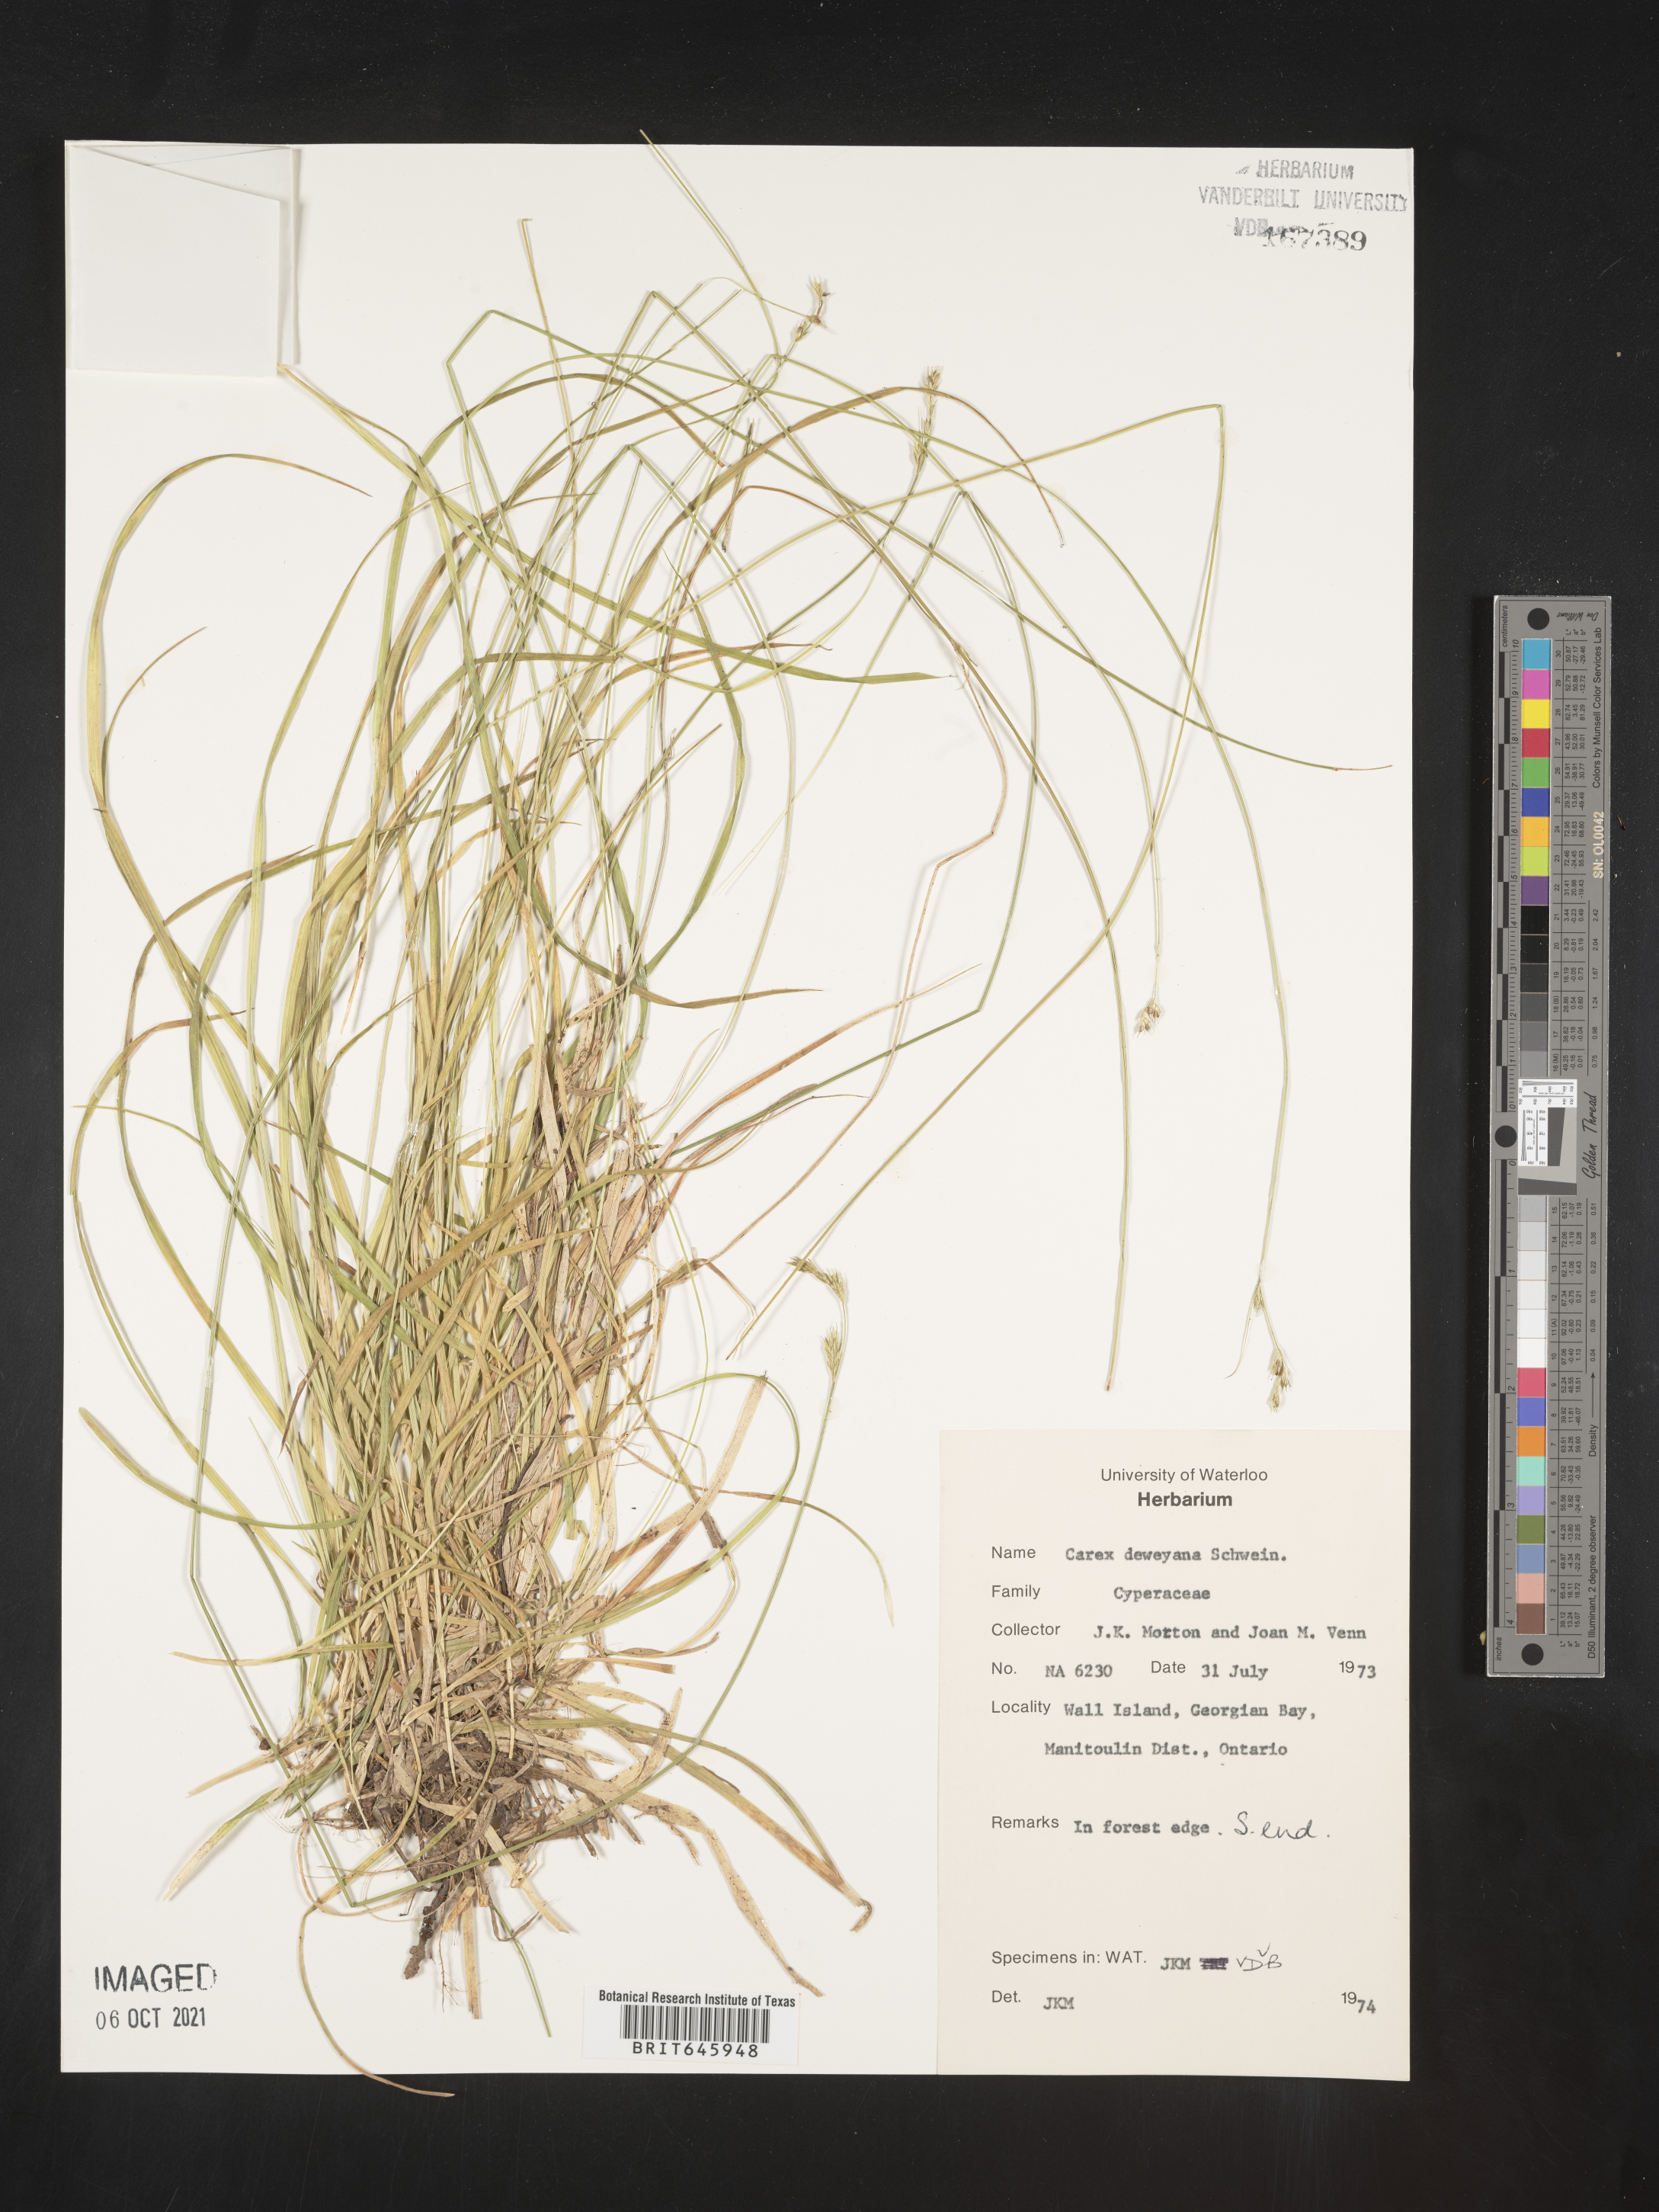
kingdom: Plantae
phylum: Tracheophyta
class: Liliopsida
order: Poales
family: Cyperaceae
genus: Carex
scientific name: Carex deweyana
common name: Dewey's sedge
